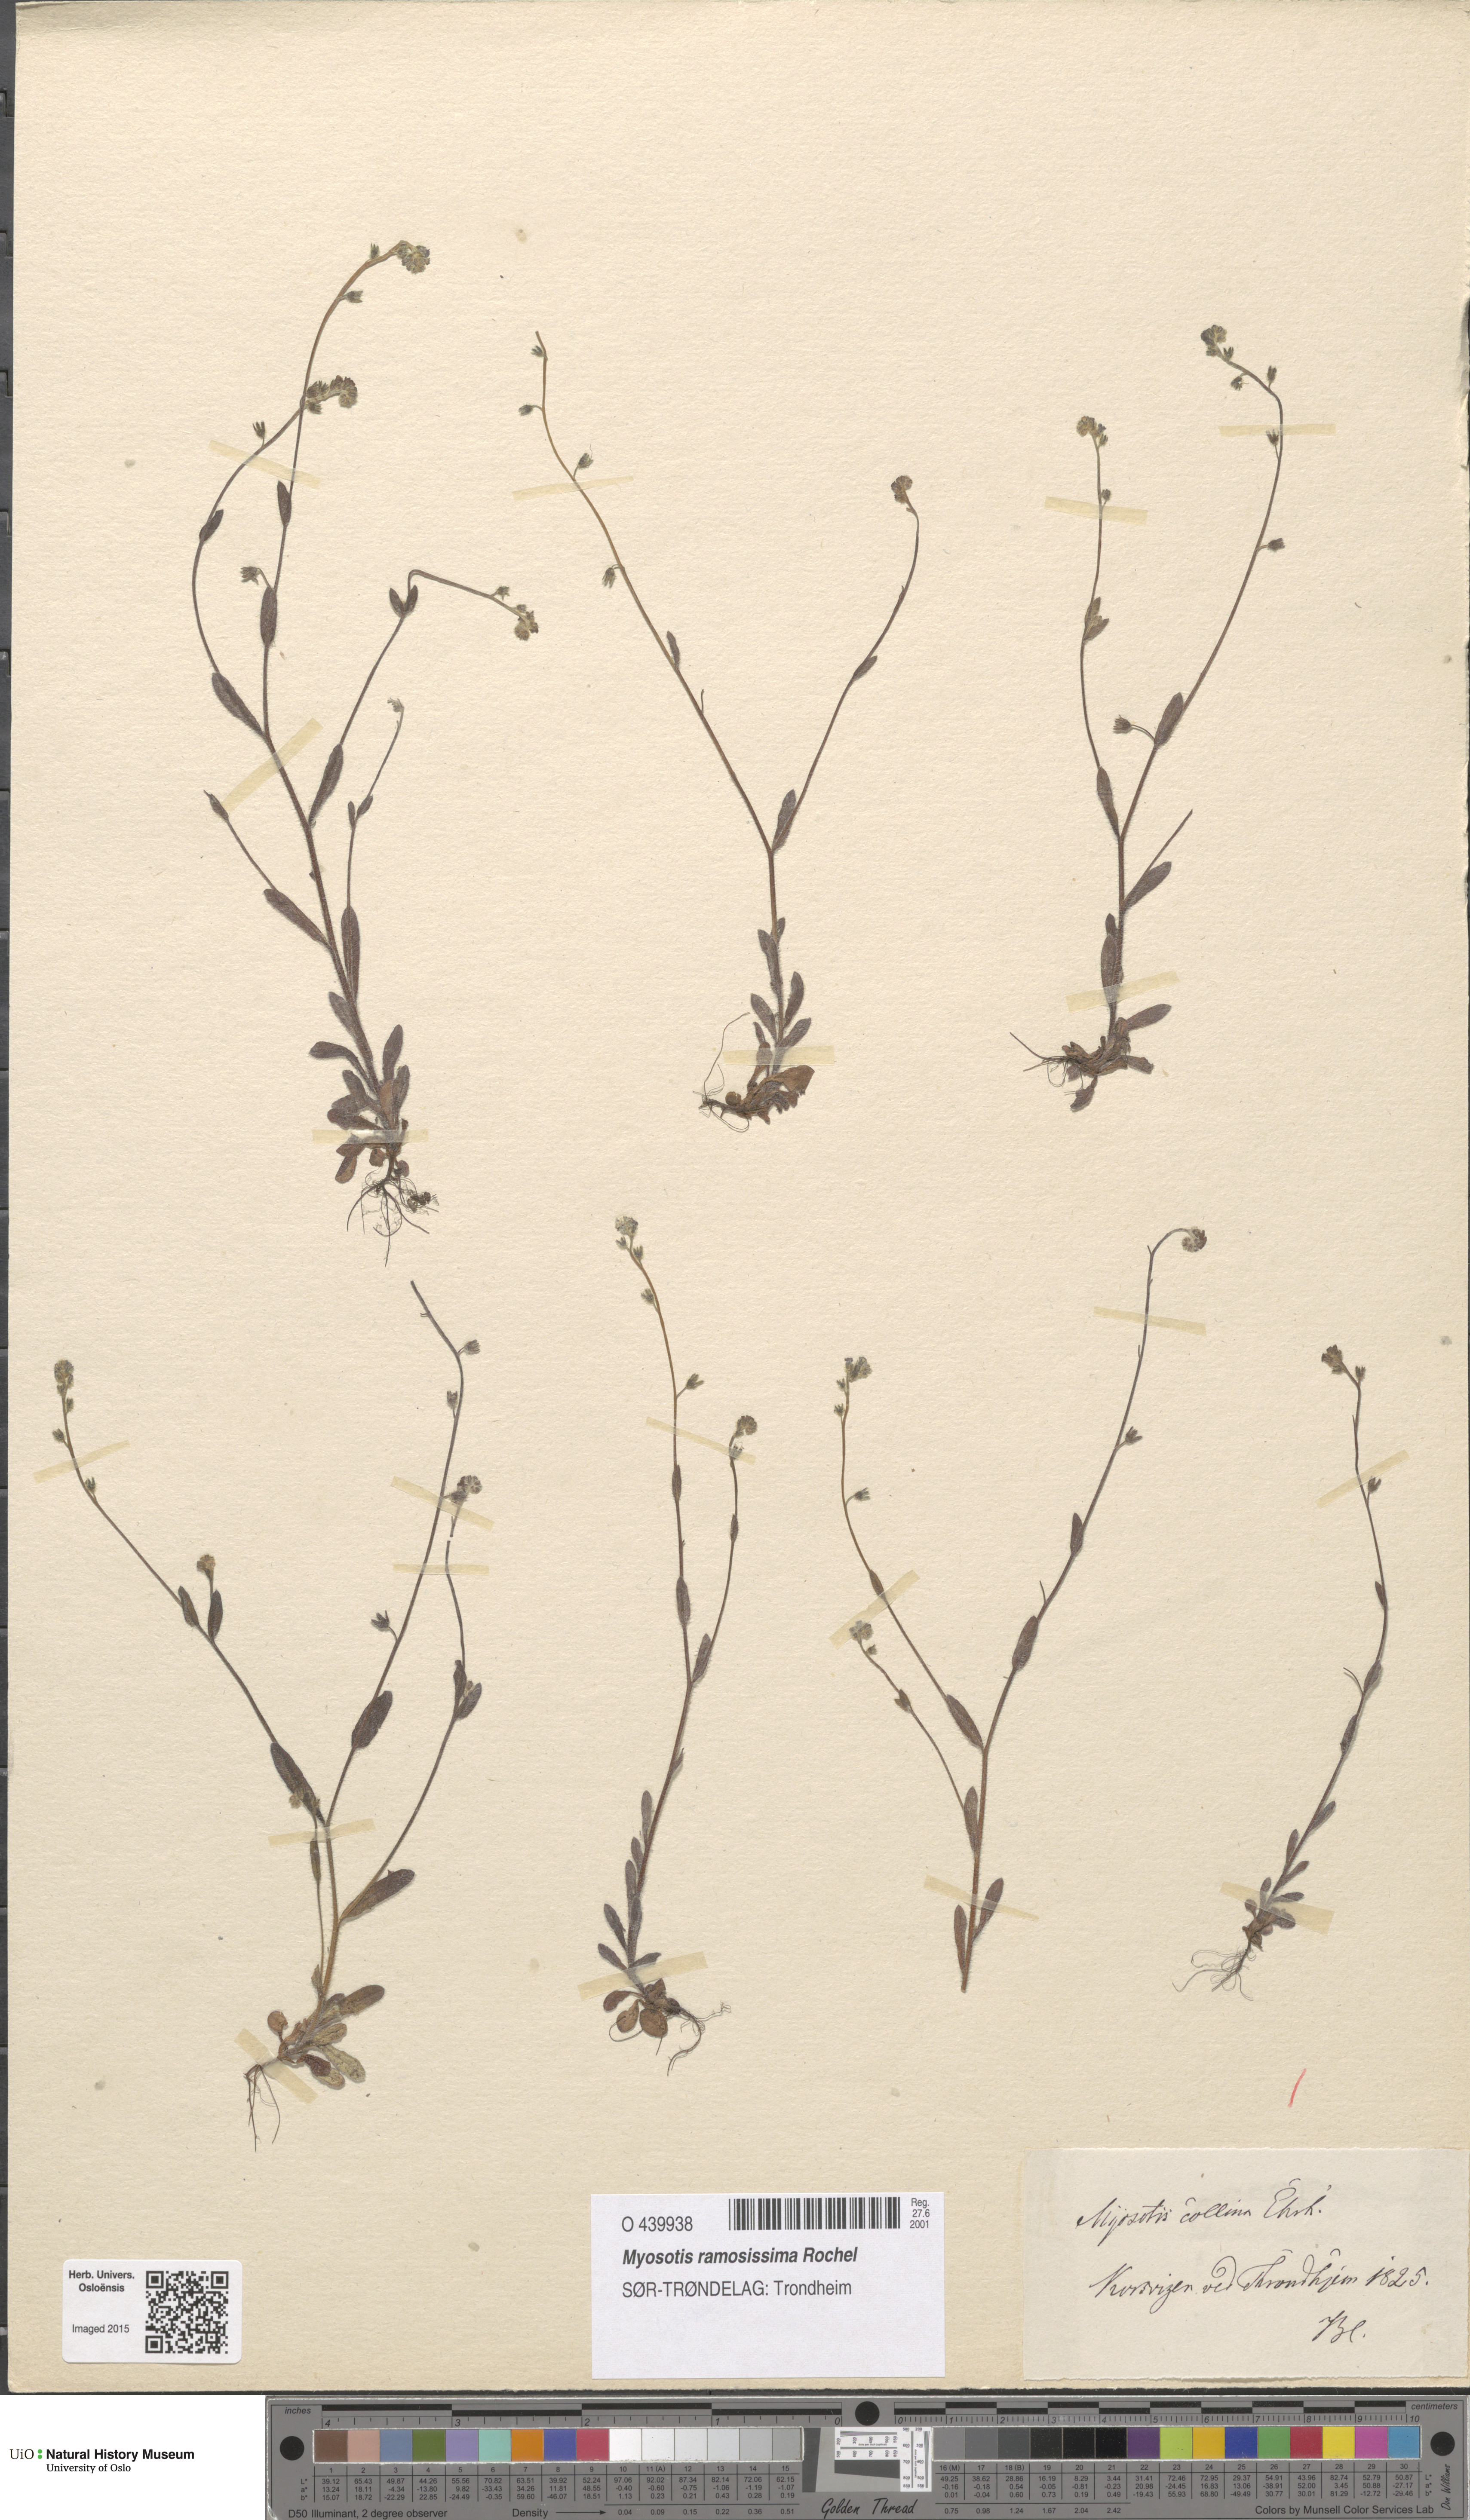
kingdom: Plantae
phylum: Tracheophyta
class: Magnoliopsida
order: Boraginales
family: Boraginaceae
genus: Myosotis
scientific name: Myosotis ramosissima
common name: Early forget-me-not
